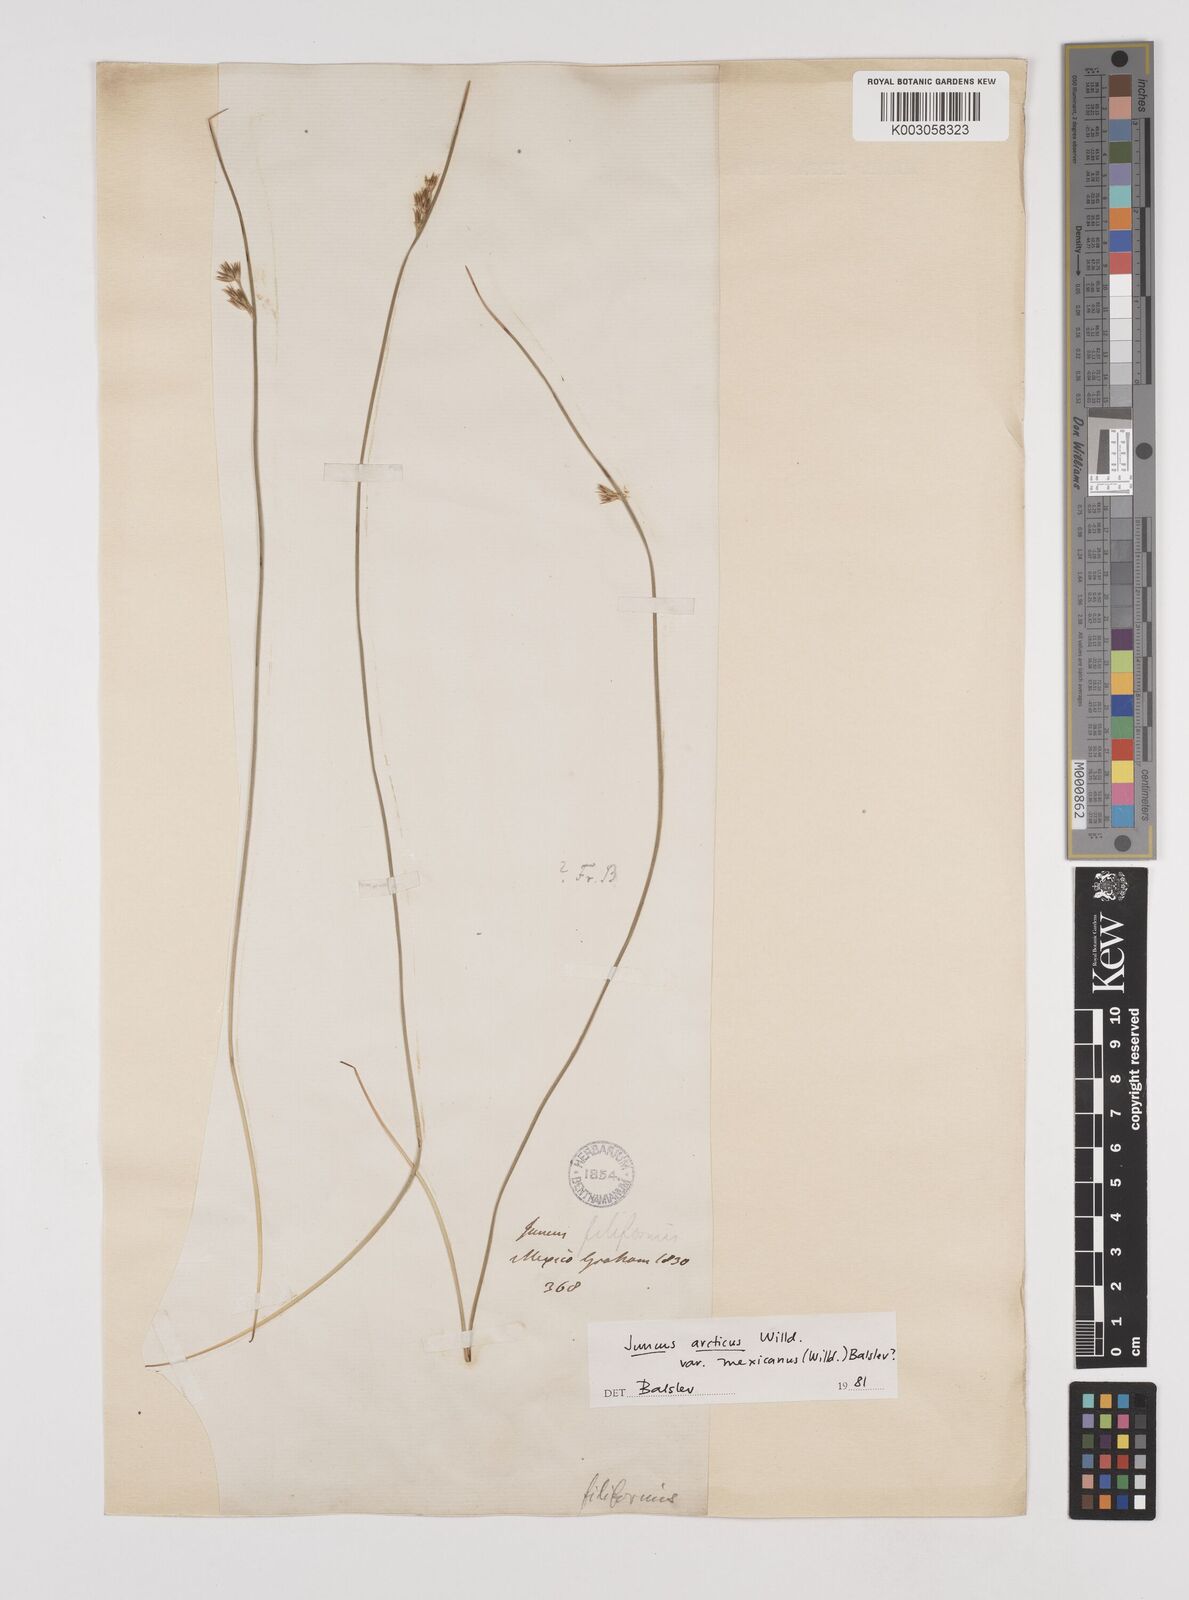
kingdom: Plantae
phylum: Tracheophyta
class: Liliopsida
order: Poales
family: Juncaceae
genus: Juncus
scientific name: Juncus arcticus
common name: Arctic rush
